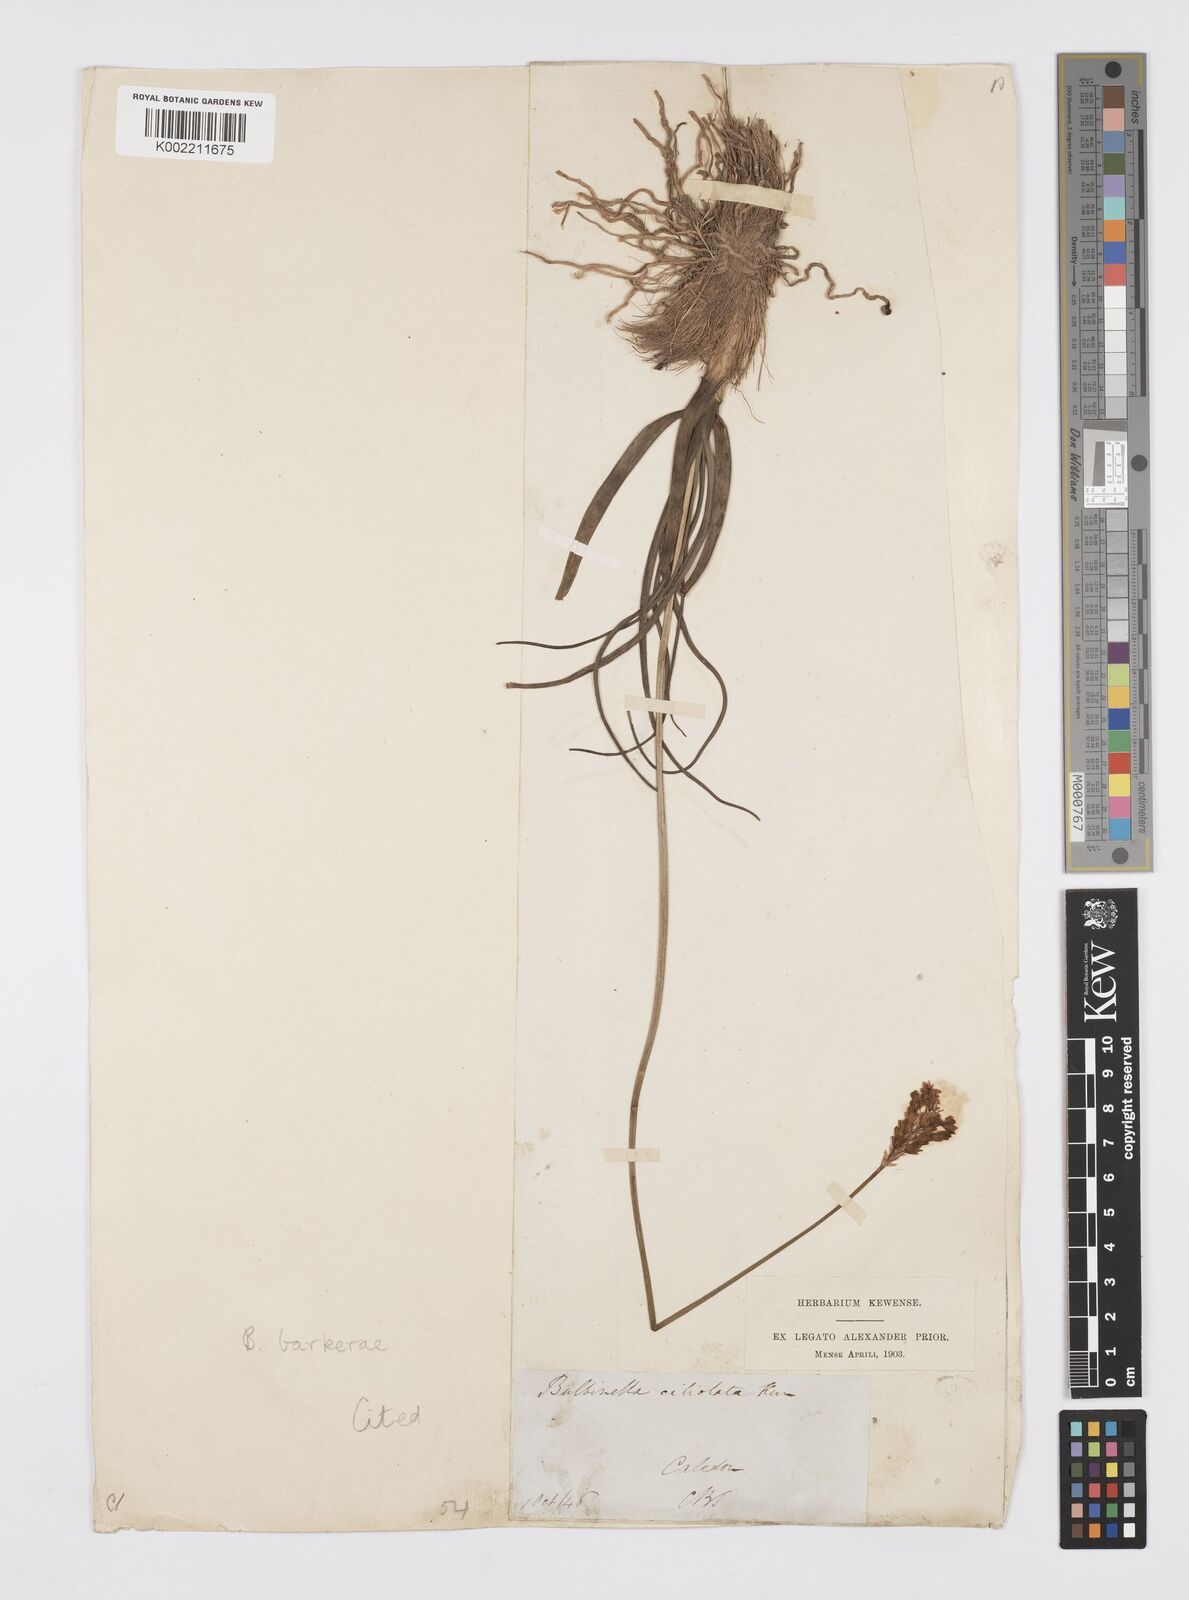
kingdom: Plantae
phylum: Tracheophyta
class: Liliopsida
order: Asparagales
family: Asphodelaceae
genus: Bulbinella
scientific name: Bulbinella barkerae
